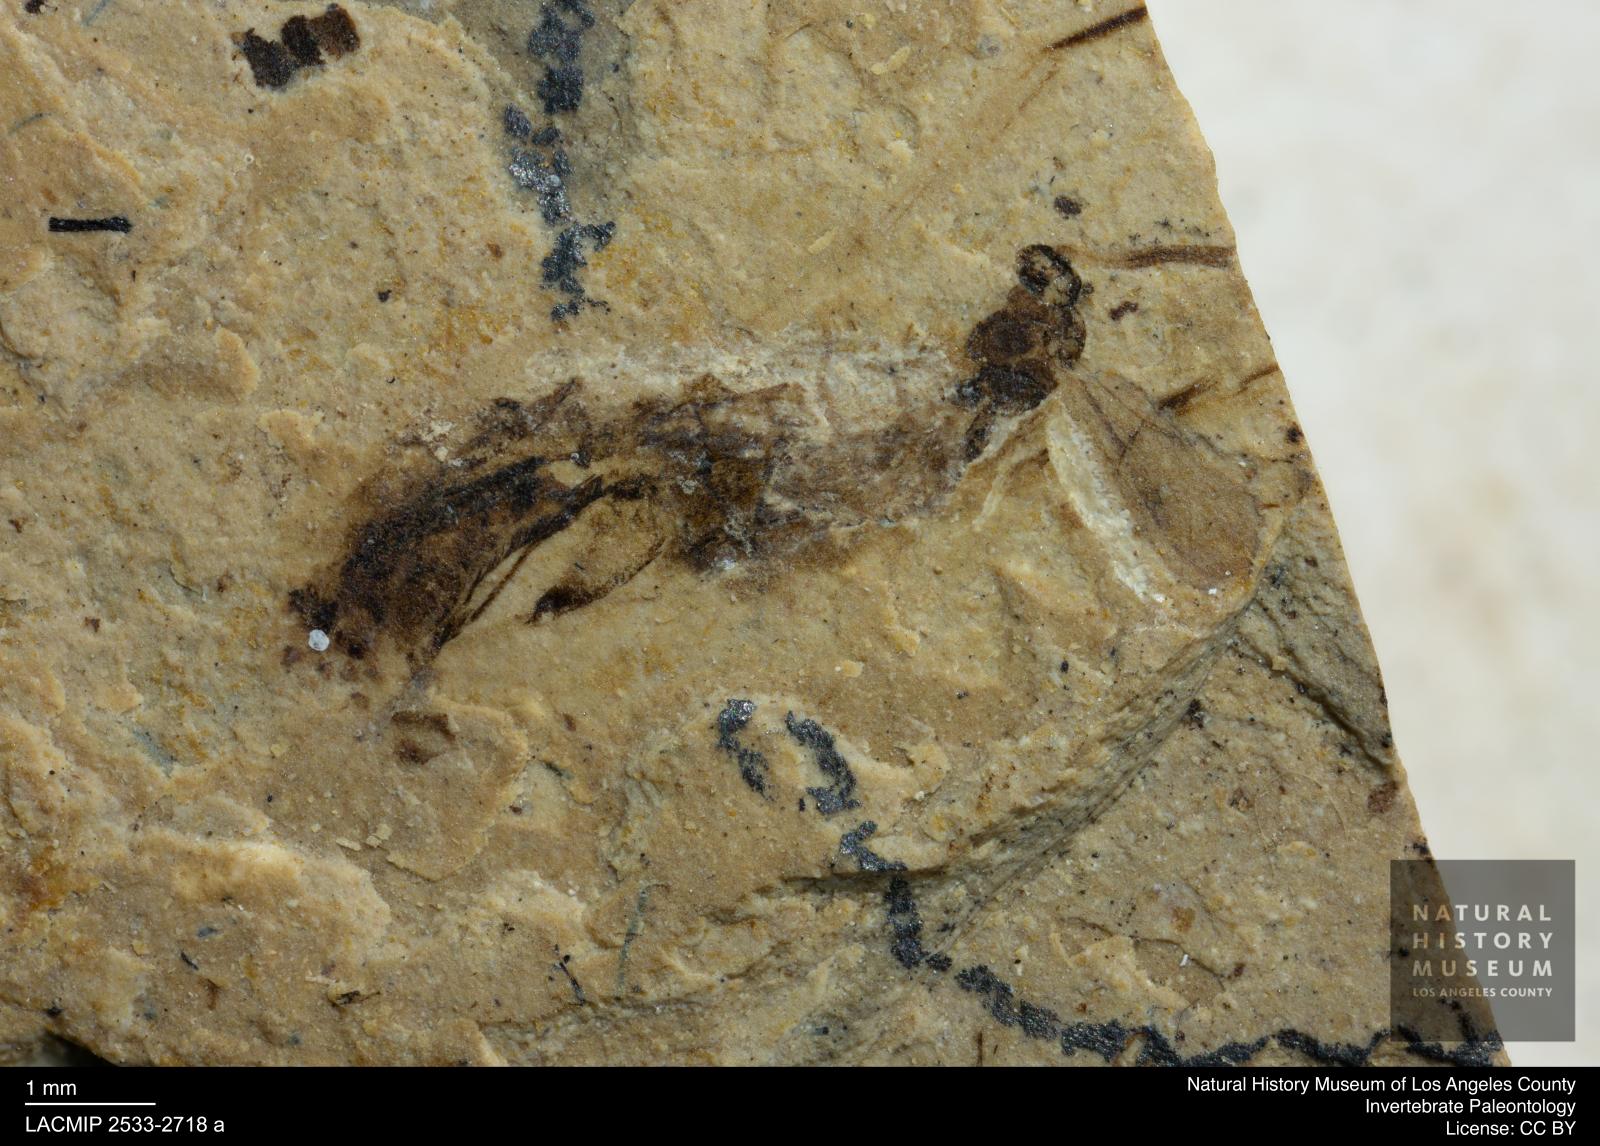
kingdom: Animalia
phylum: Arthropoda
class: Insecta
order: Hymenoptera
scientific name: Hymenoptera
